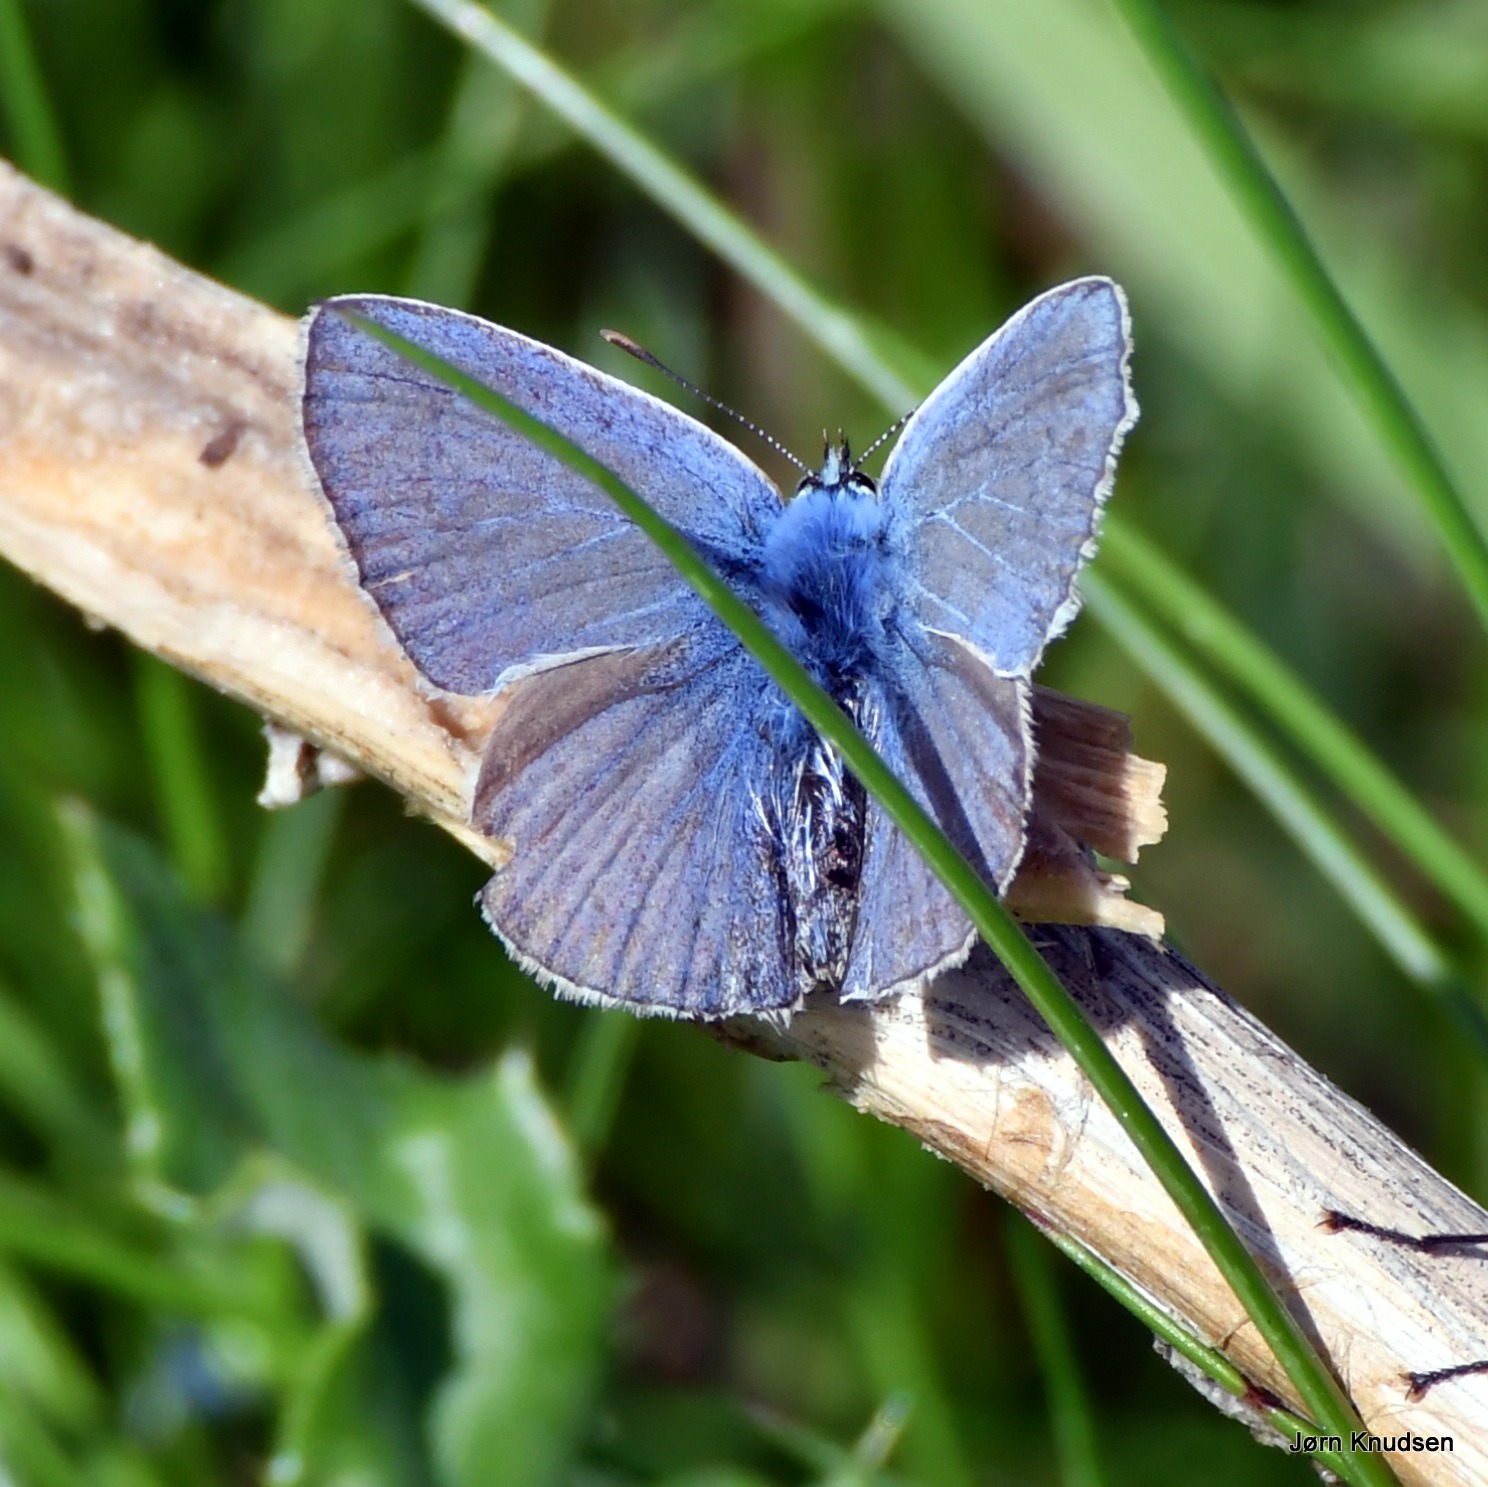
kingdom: Animalia
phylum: Arthropoda
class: Insecta
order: Lepidoptera
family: Lycaenidae
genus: Polyommatus
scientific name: Polyommatus icarus
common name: Almindelig blåfugl
